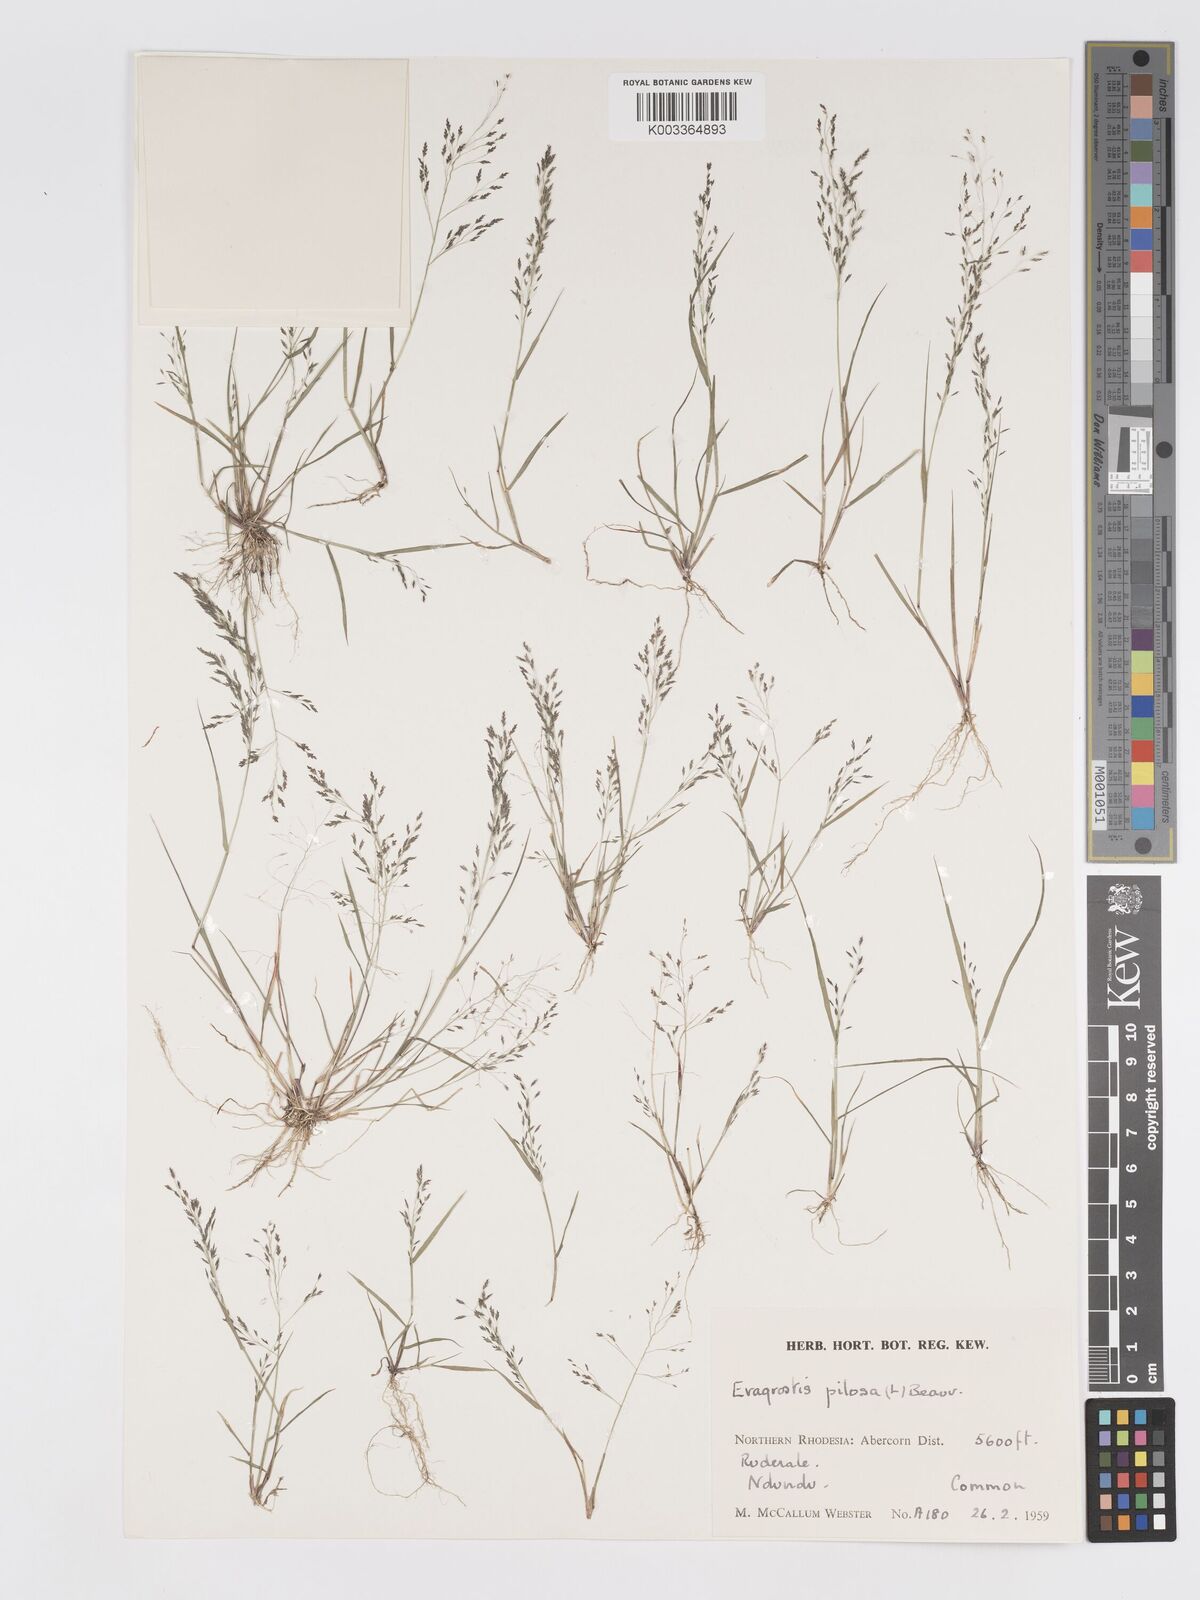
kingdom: Plantae
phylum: Tracheophyta
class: Liliopsida
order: Poales
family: Poaceae
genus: Eragrostis
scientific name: Eragrostis pilosa
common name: Indian lovegrass
